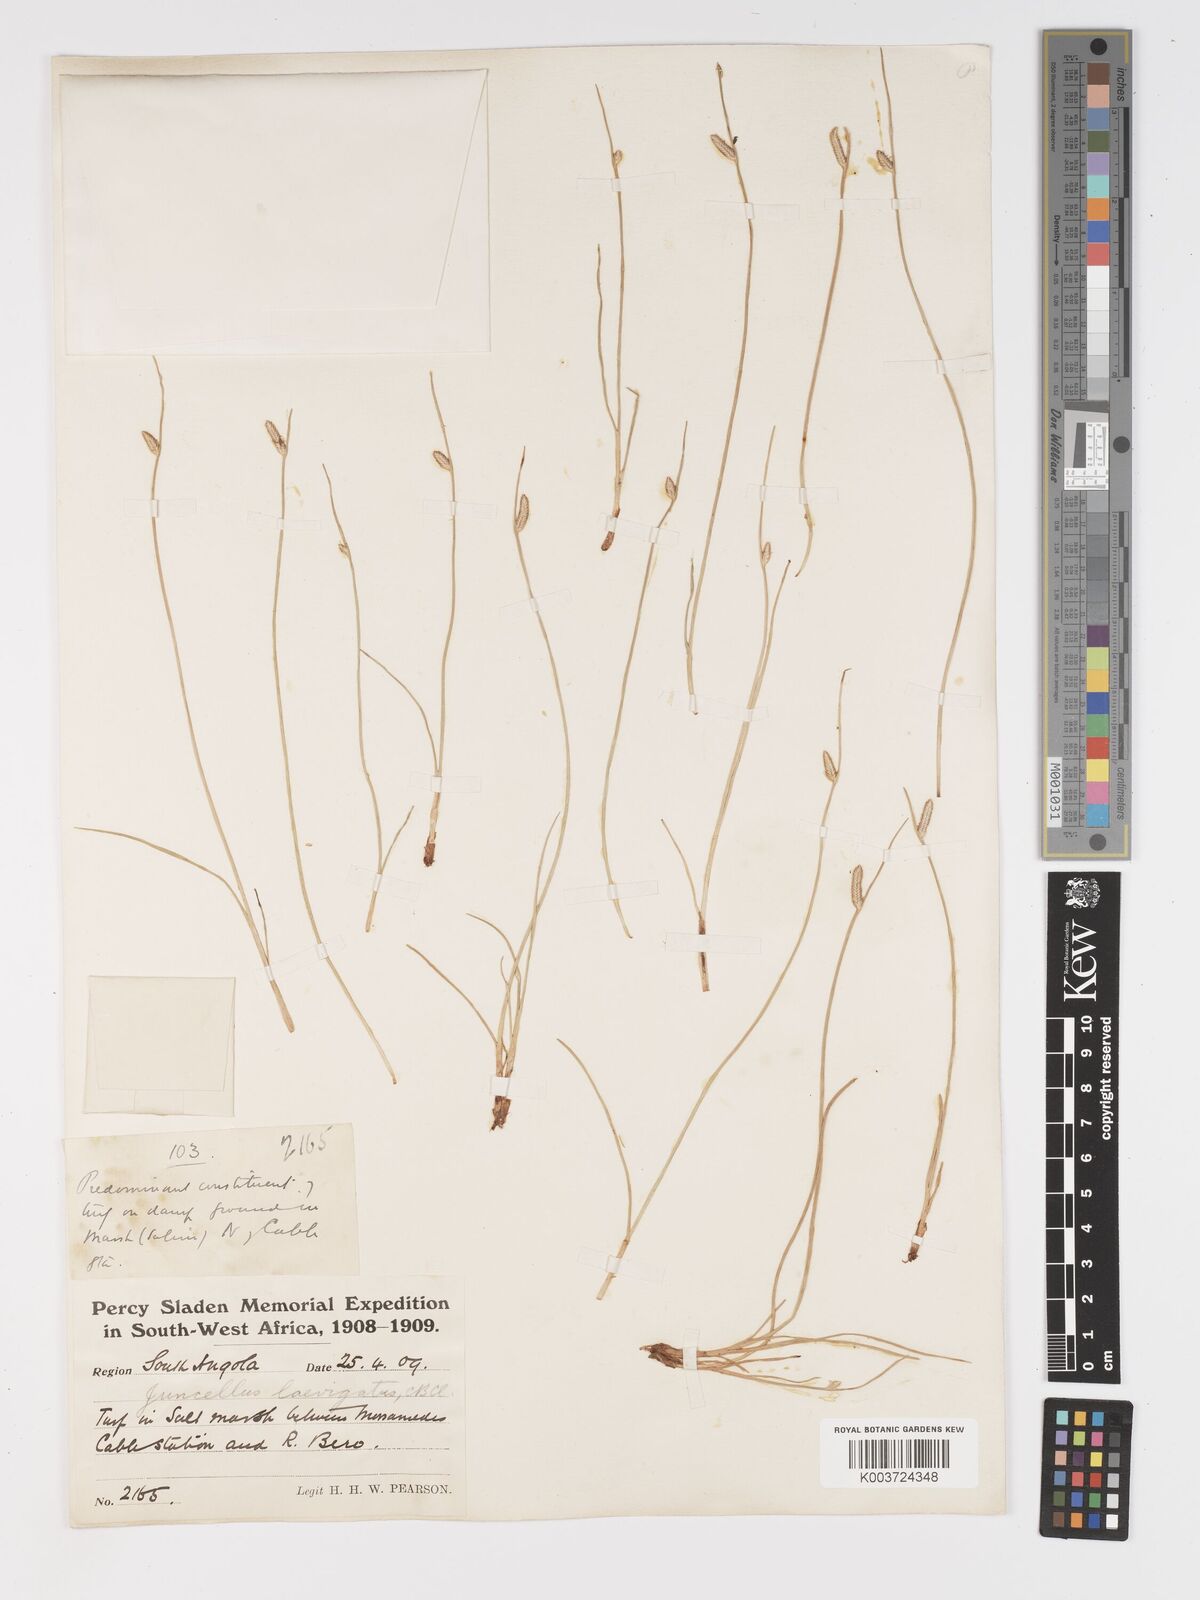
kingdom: Plantae
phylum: Tracheophyta
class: Liliopsida
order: Poales
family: Cyperaceae
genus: Cyperus
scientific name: Cyperus laevigatus
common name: Smooth flat sedge
